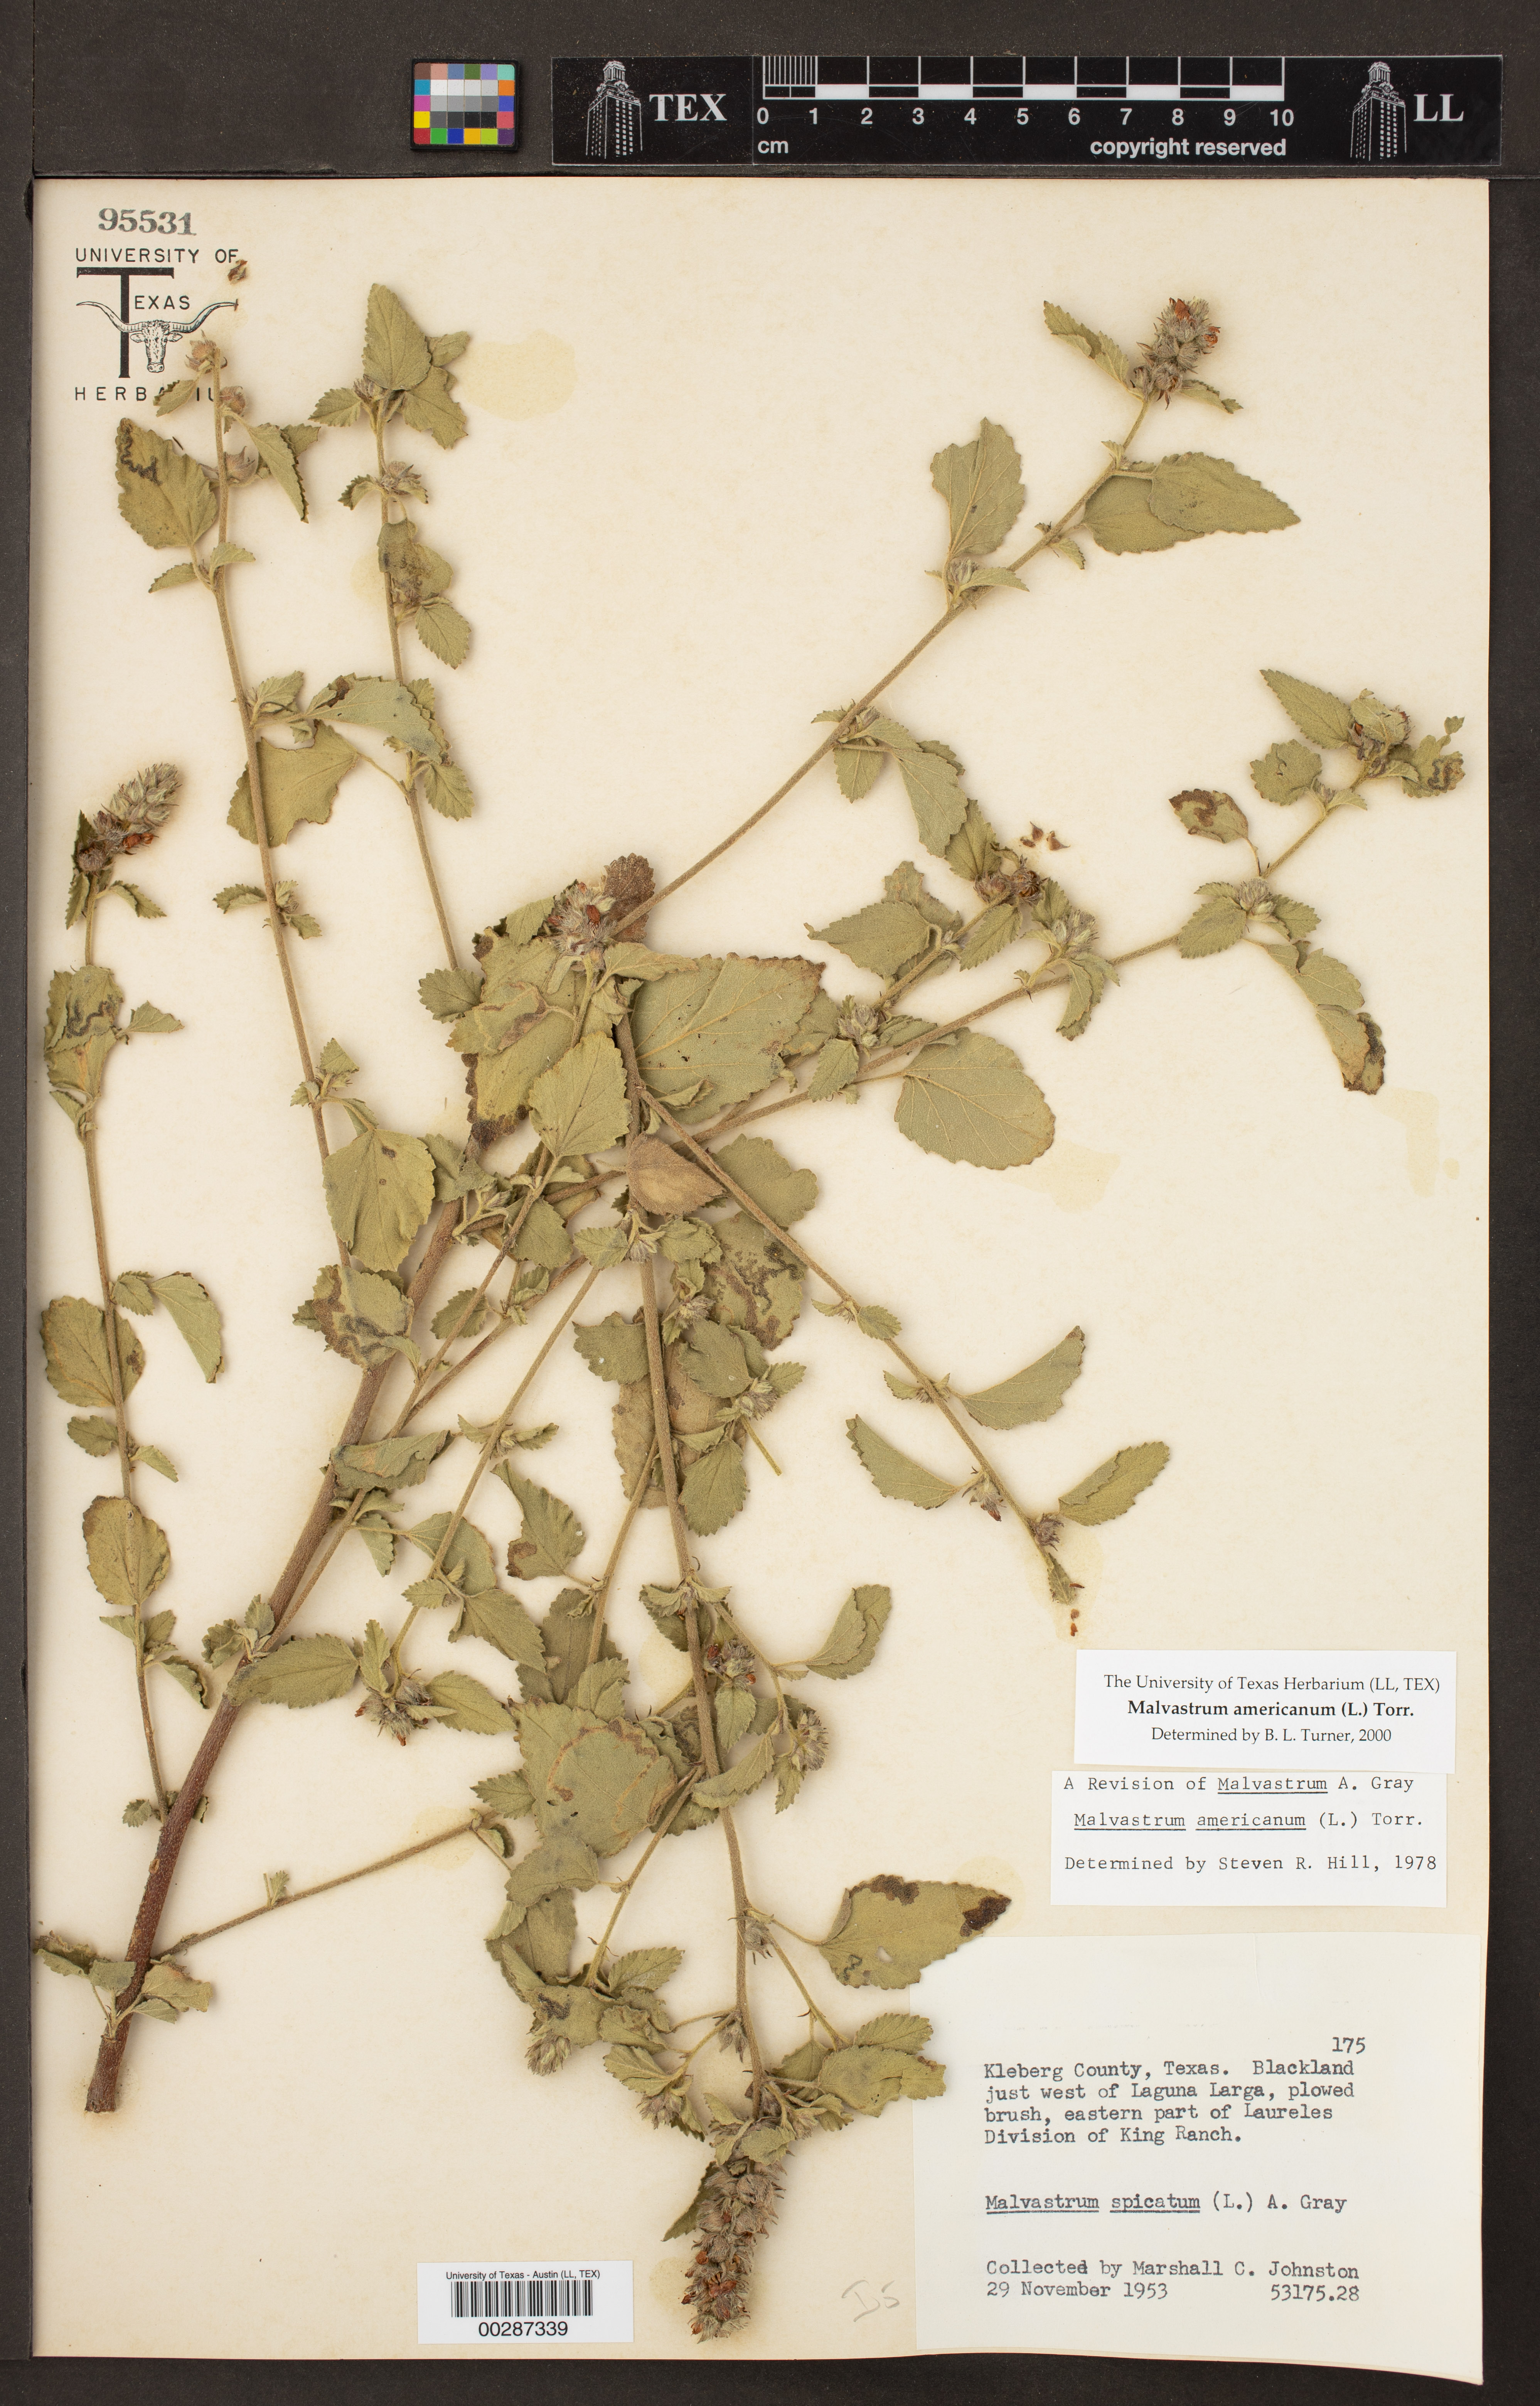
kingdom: Plantae
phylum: Tracheophyta
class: Magnoliopsida
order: Malvales
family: Malvaceae
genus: Malvastrum
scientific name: Malvastrum americanum
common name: Spiked malvastrum
